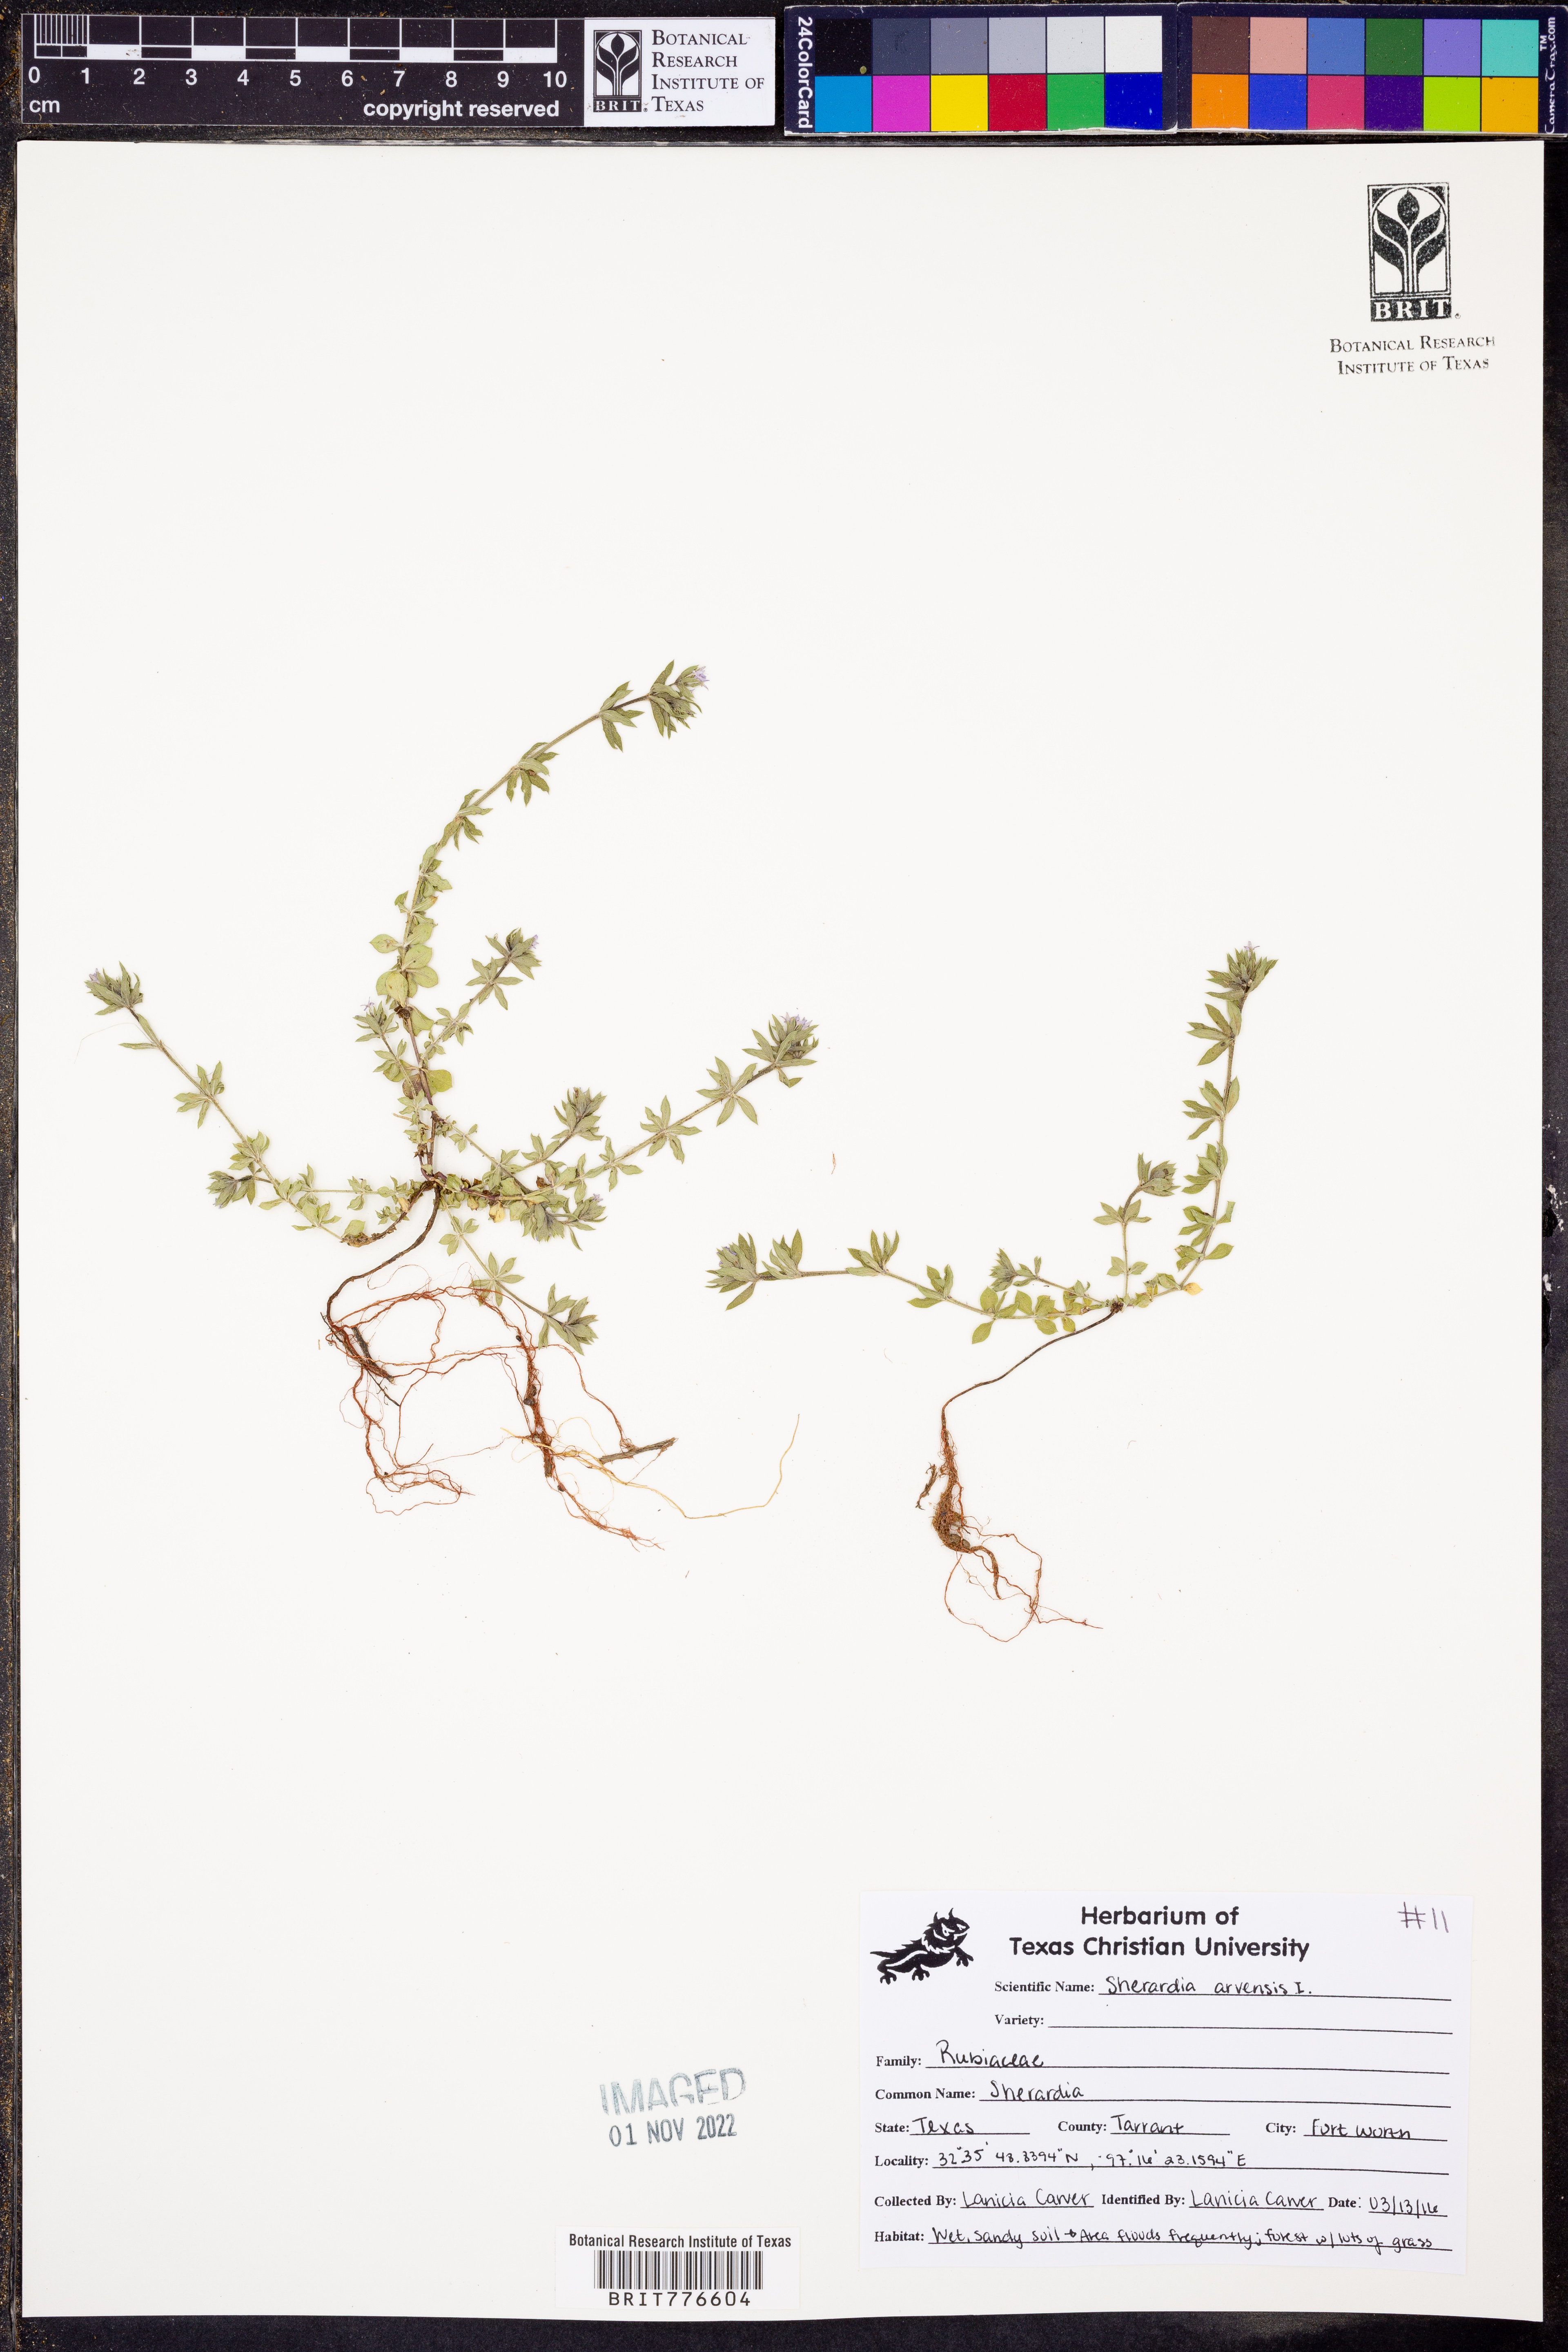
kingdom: Plantae
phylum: Tracheophyta
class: Magnoliopsida
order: Gentianales
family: Rubiaceae
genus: Sherardia
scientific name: Sherardia arvensis
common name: Field madder
